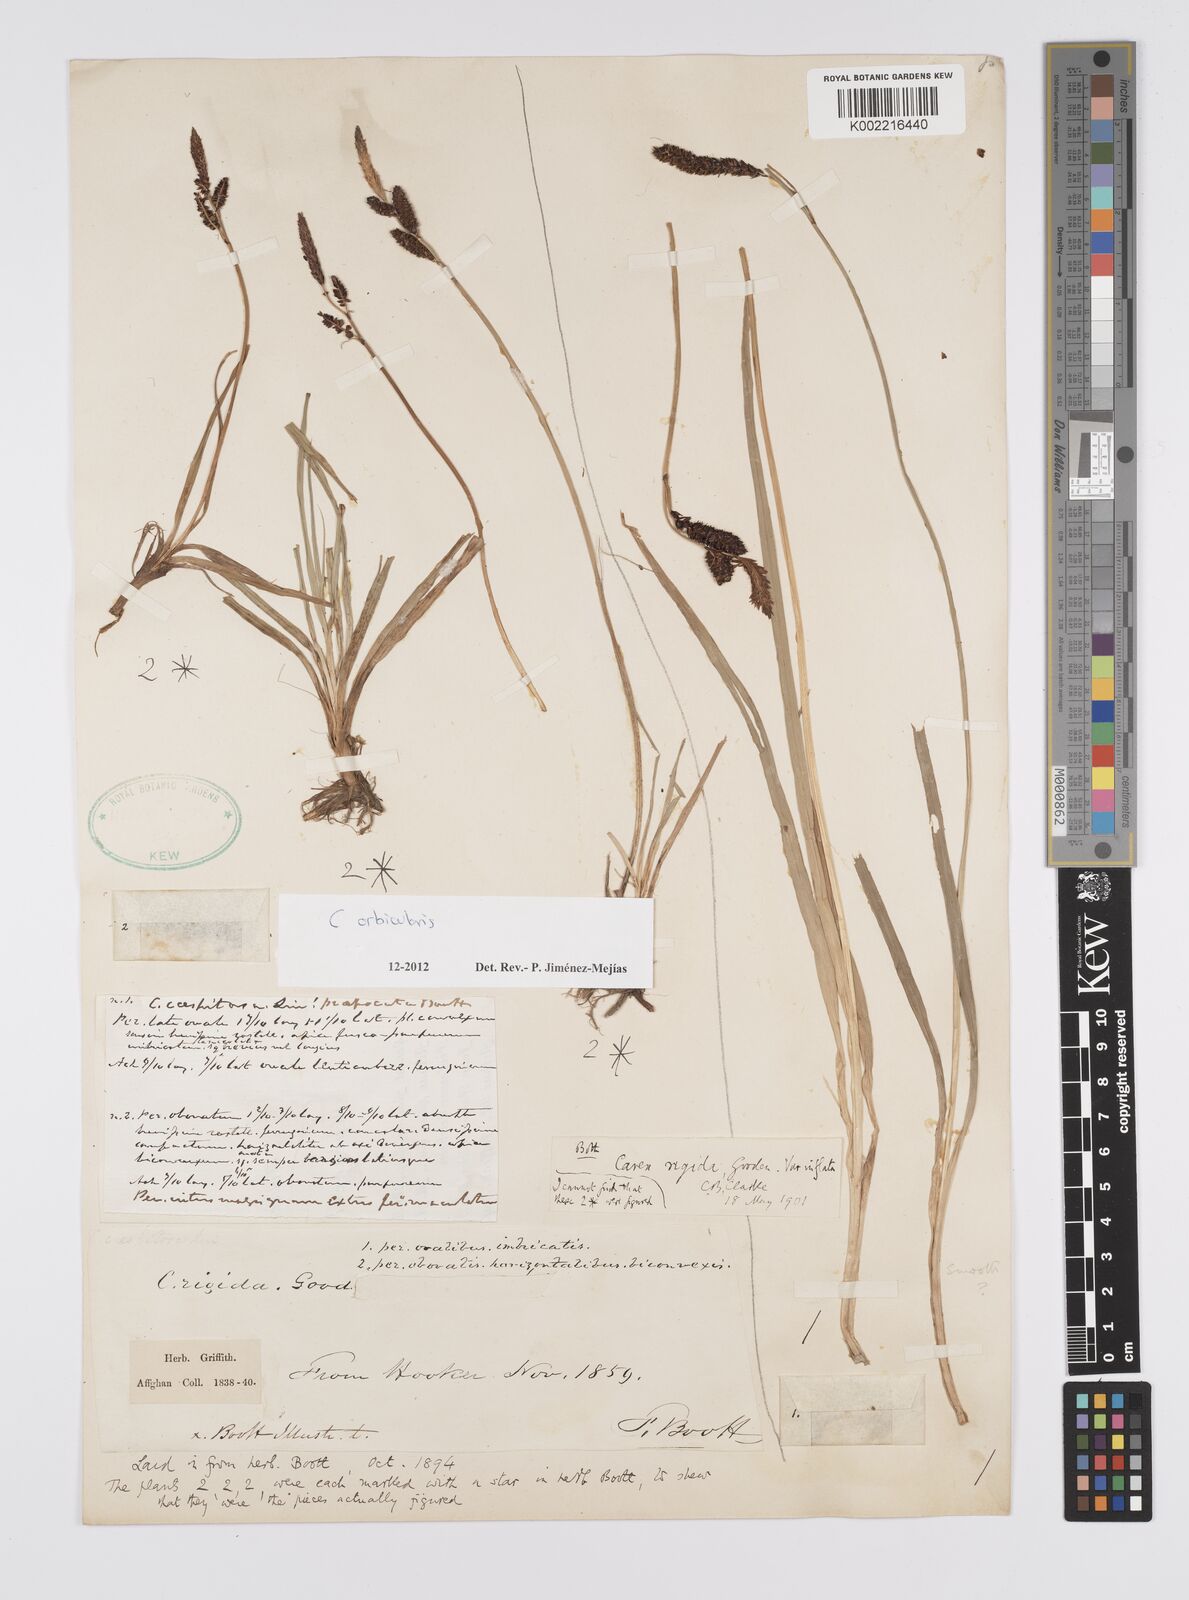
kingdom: Plantae
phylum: Tracheophyta
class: Liliopsida
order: Poales
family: Cyperaceae
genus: Carex
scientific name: Carex orbicularis
